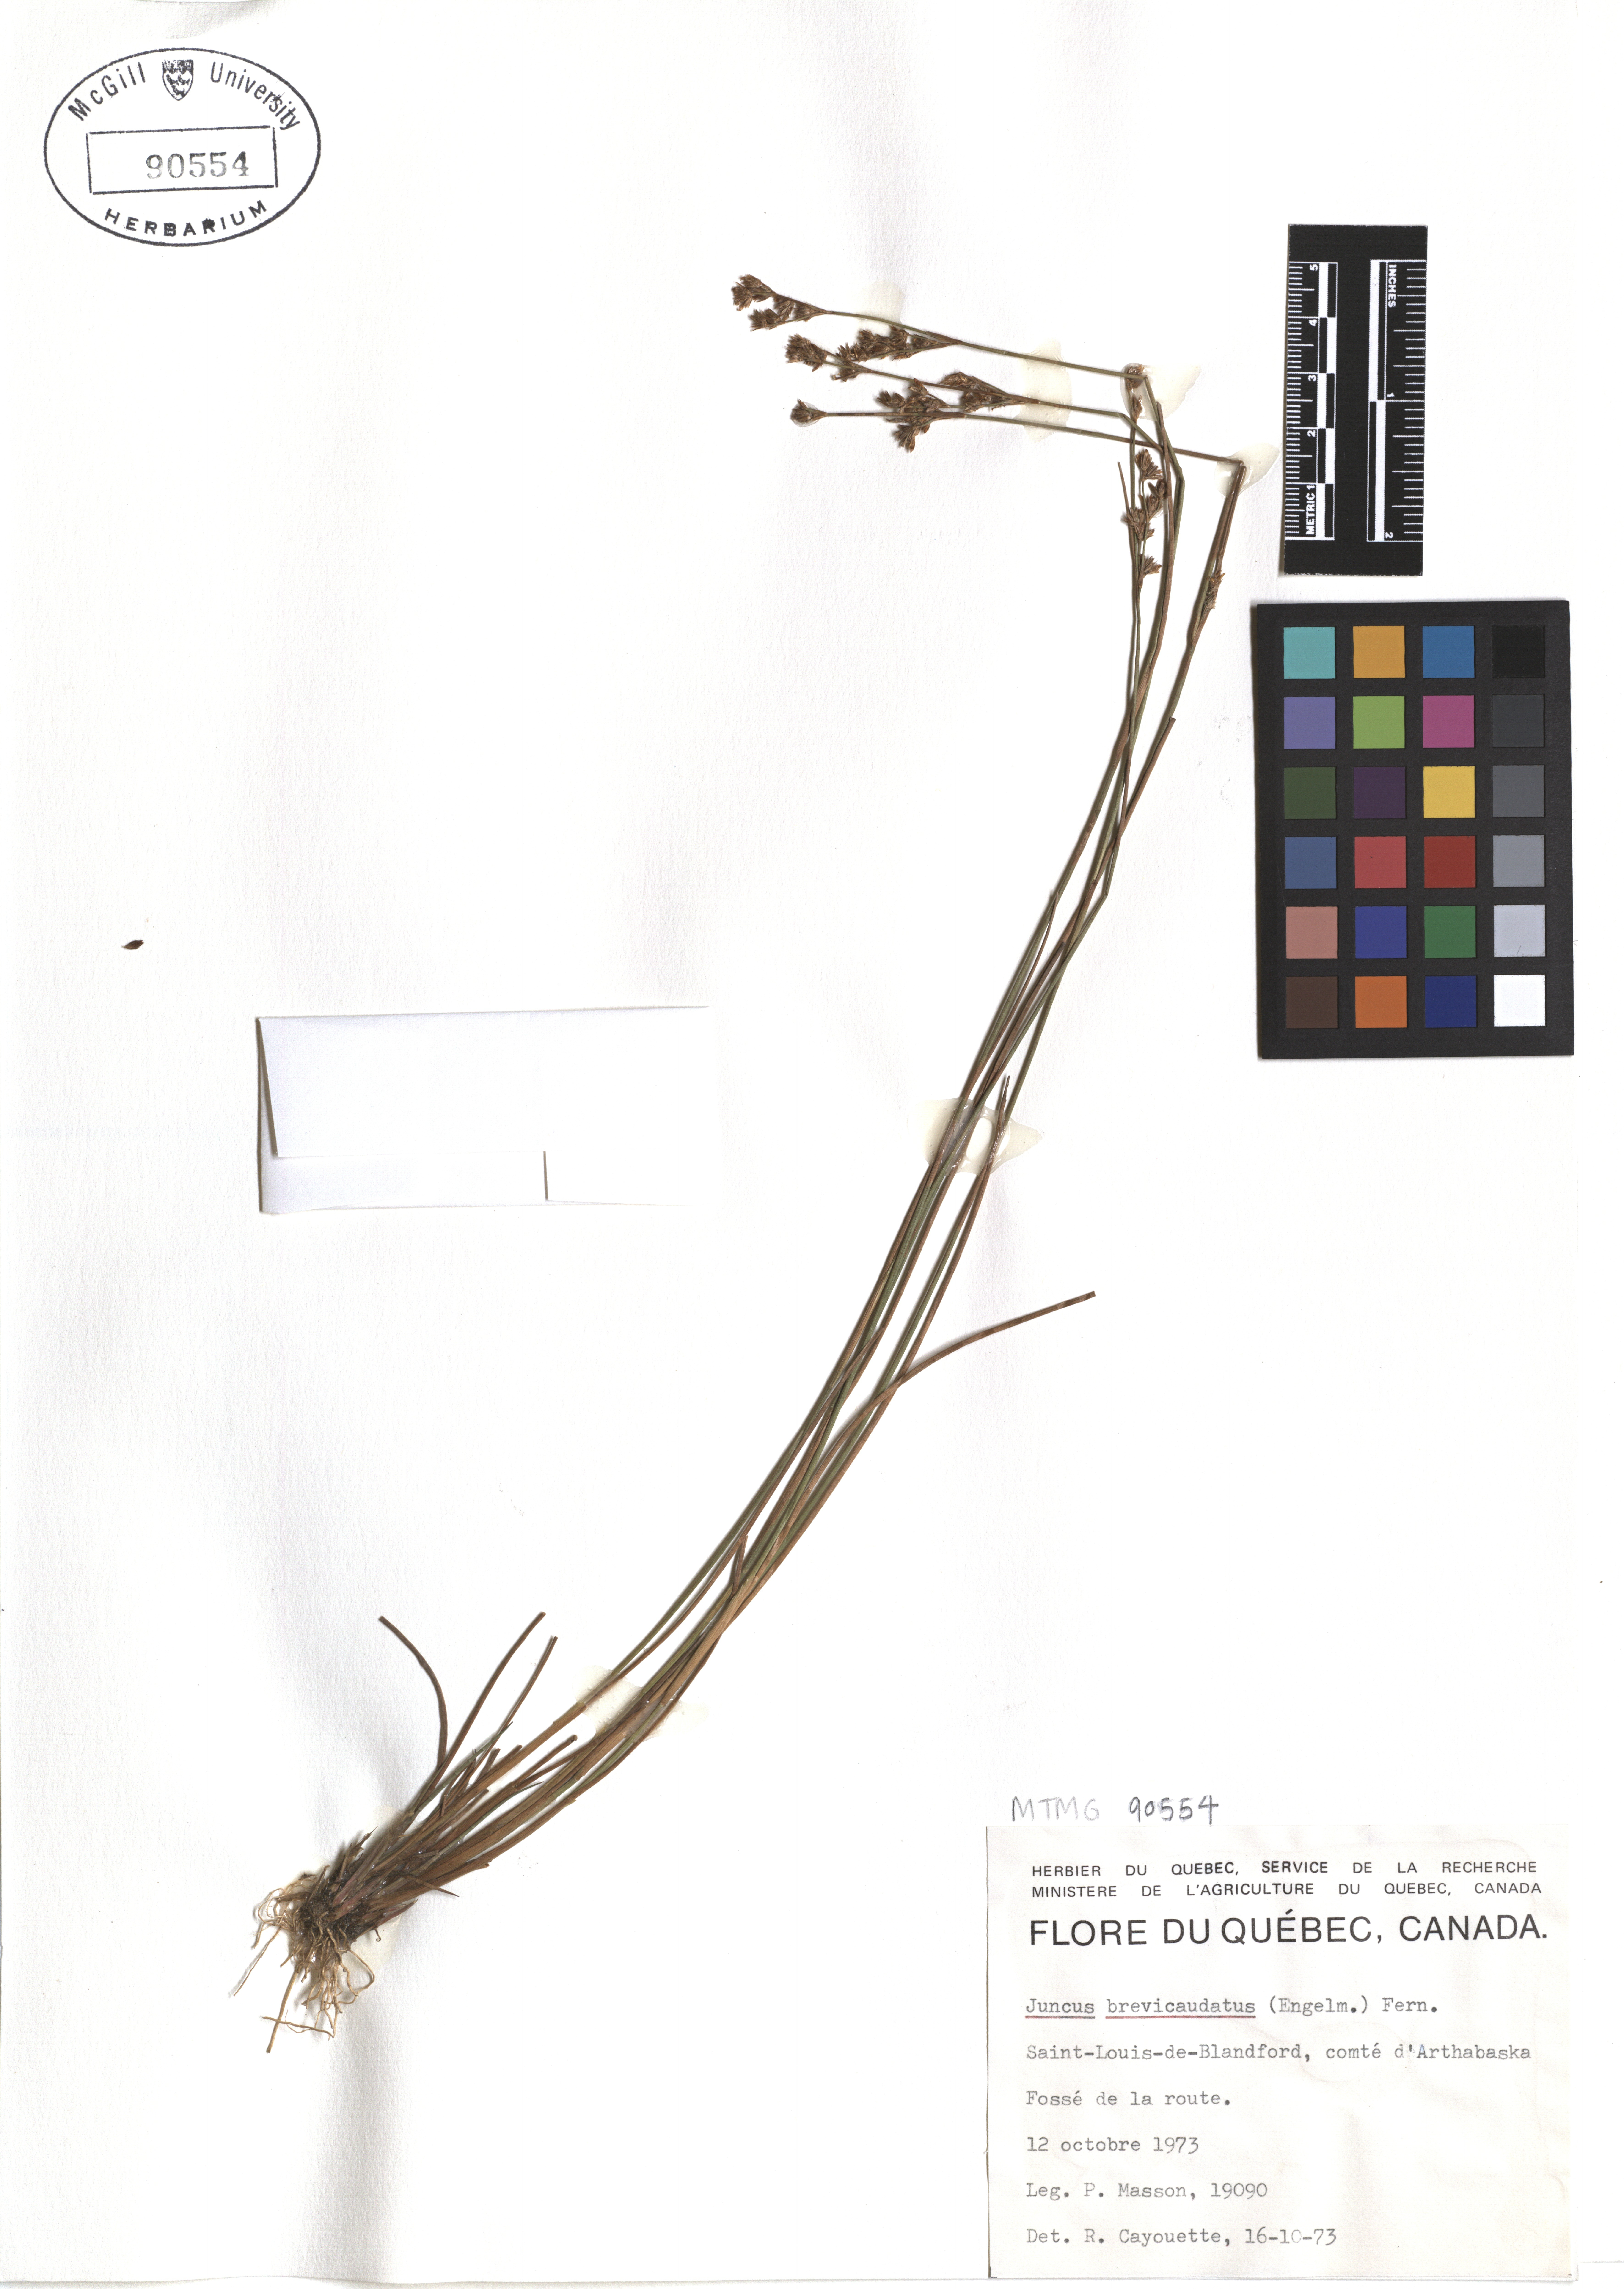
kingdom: Plantae
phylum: Tracheophyta
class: Liliopsida
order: Poales
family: Juncaceae
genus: Juncus
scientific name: Juncus brevicaudatus
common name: Narrow-panicle rush
